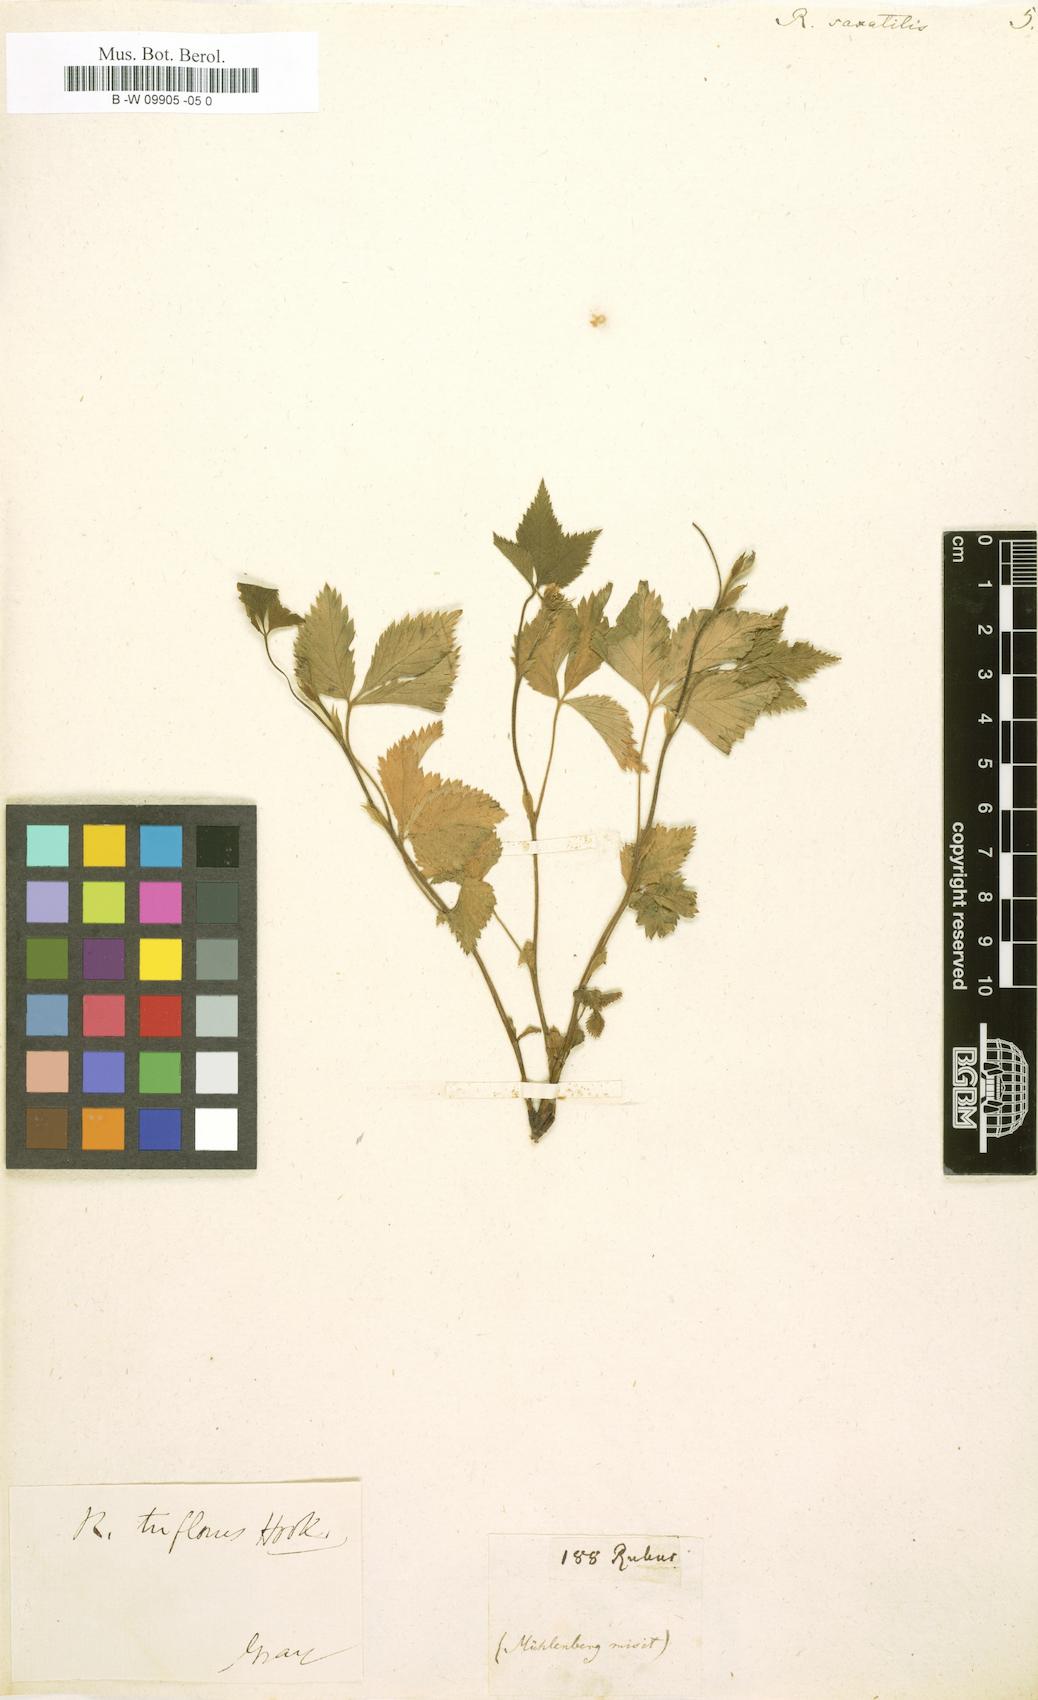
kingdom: Plantae
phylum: Tracheophyta
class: Magnoliopsida
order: Rosales
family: Rosaceae
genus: Rubus
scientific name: Rubus saxatilis
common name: Stone bramble
